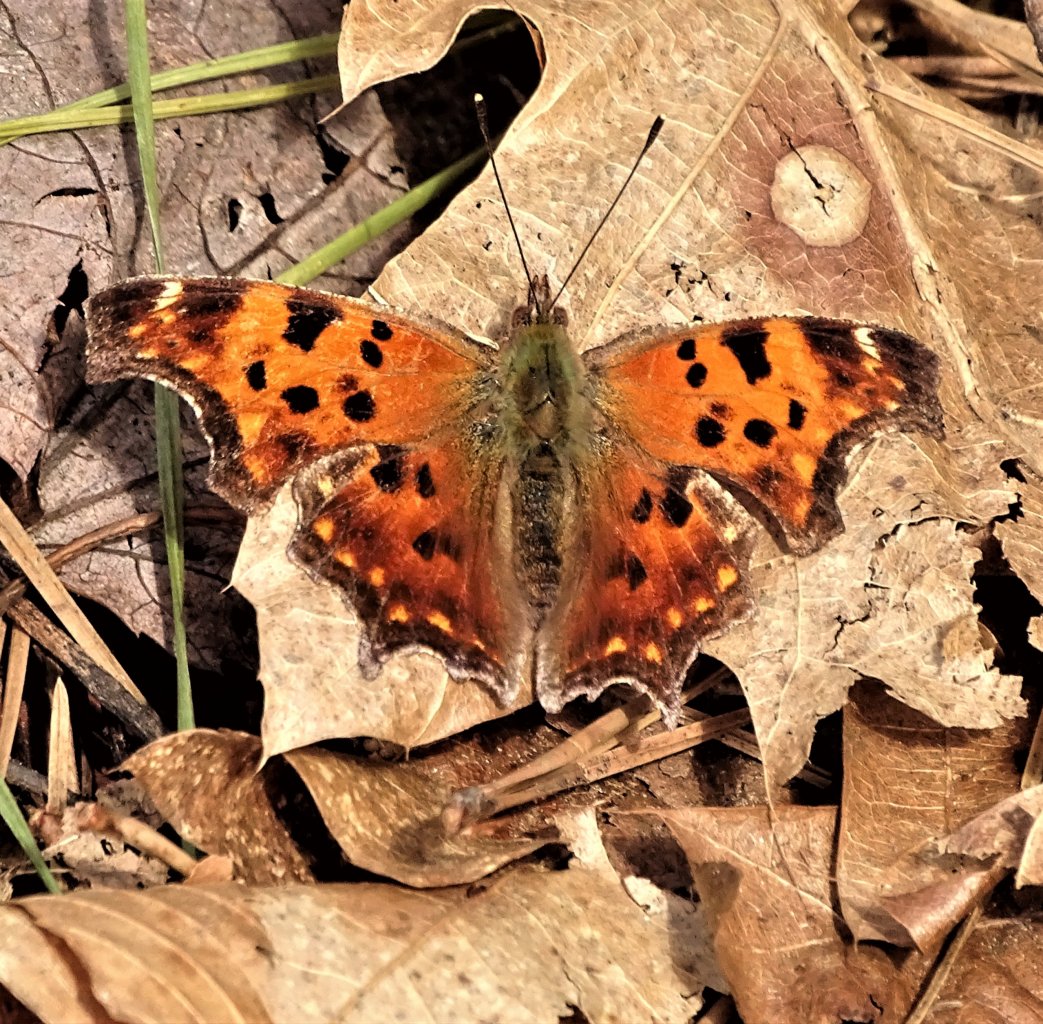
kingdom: Animalia
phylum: Arthropoda
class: Insecta
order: Lepidoptera
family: Nymphalidae
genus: Polygonia
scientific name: Polygonia comma
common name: Eastern Comma
